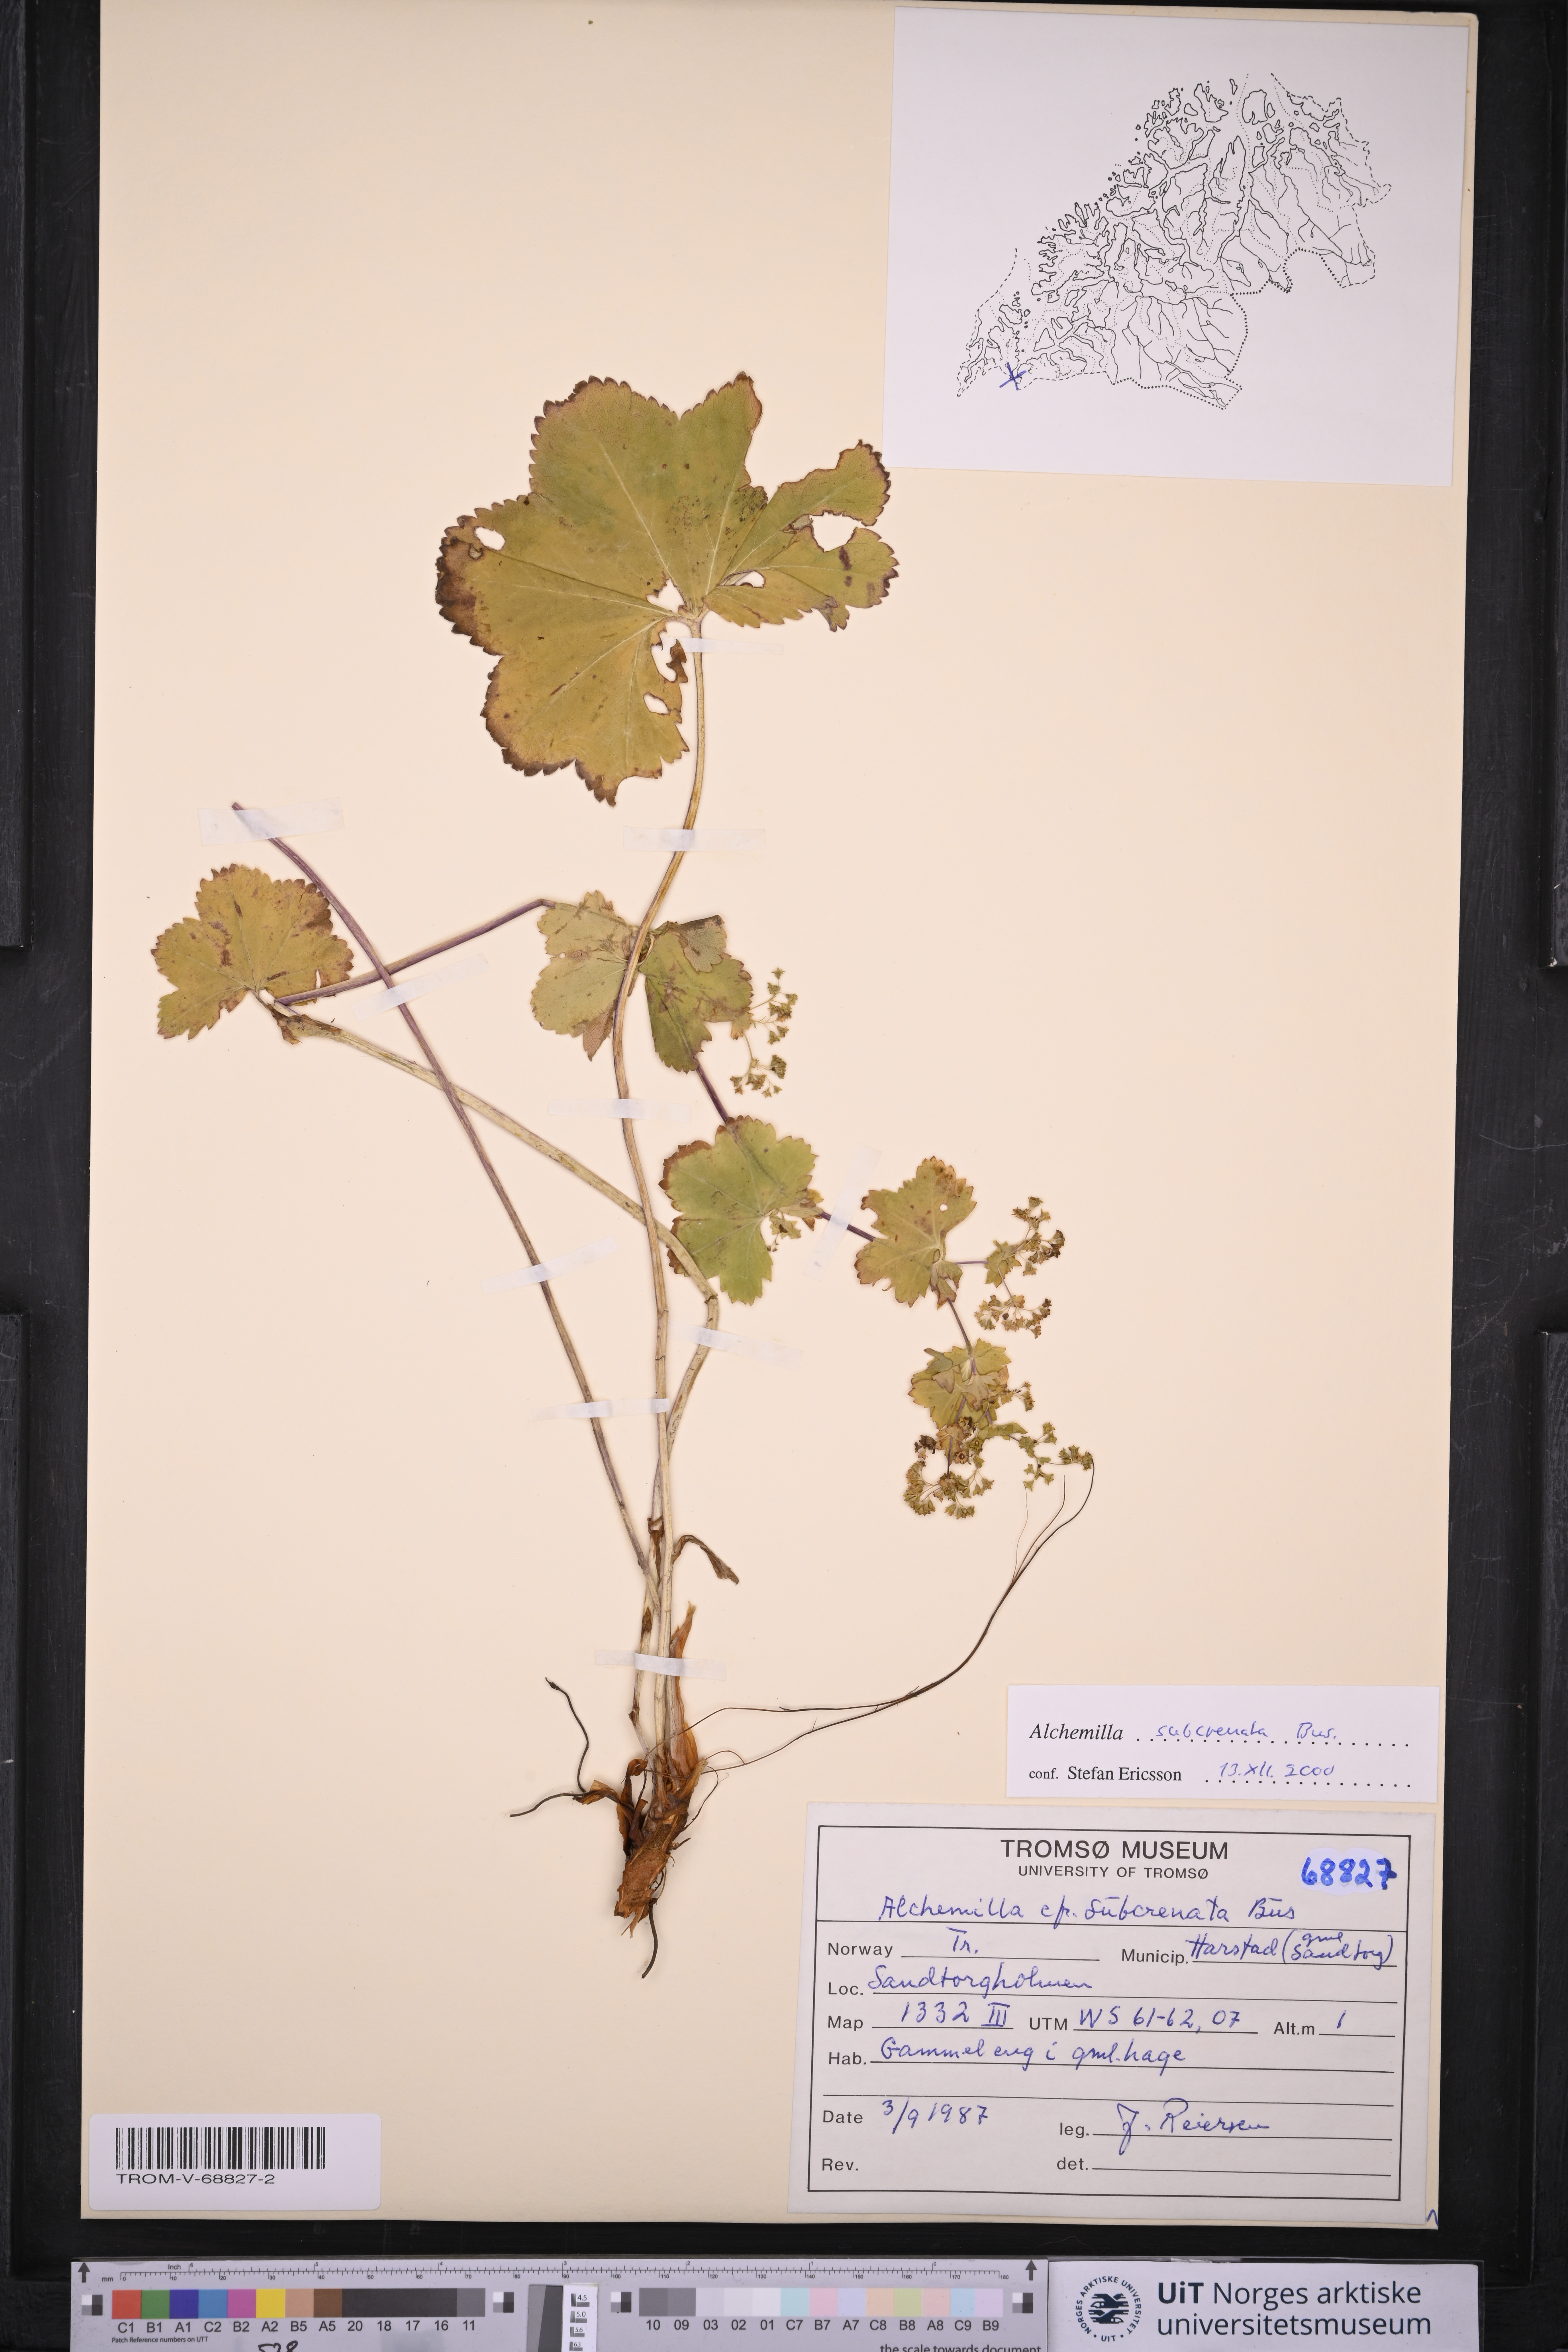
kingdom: Plantae
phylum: Tracheophyta
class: Magnoliopsida
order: Rosales
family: Rosaceae
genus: Alchemilla
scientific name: Alchemilla subcrenata
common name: Broadtooth lady's mantle
